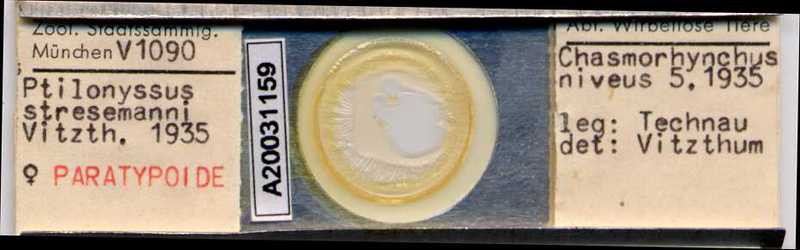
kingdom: Animalia
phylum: Arthropoda
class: Arachnida
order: Mesostigmata
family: Rhinonyssidae
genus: Ptilonyssus
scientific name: Ptilonyssus
